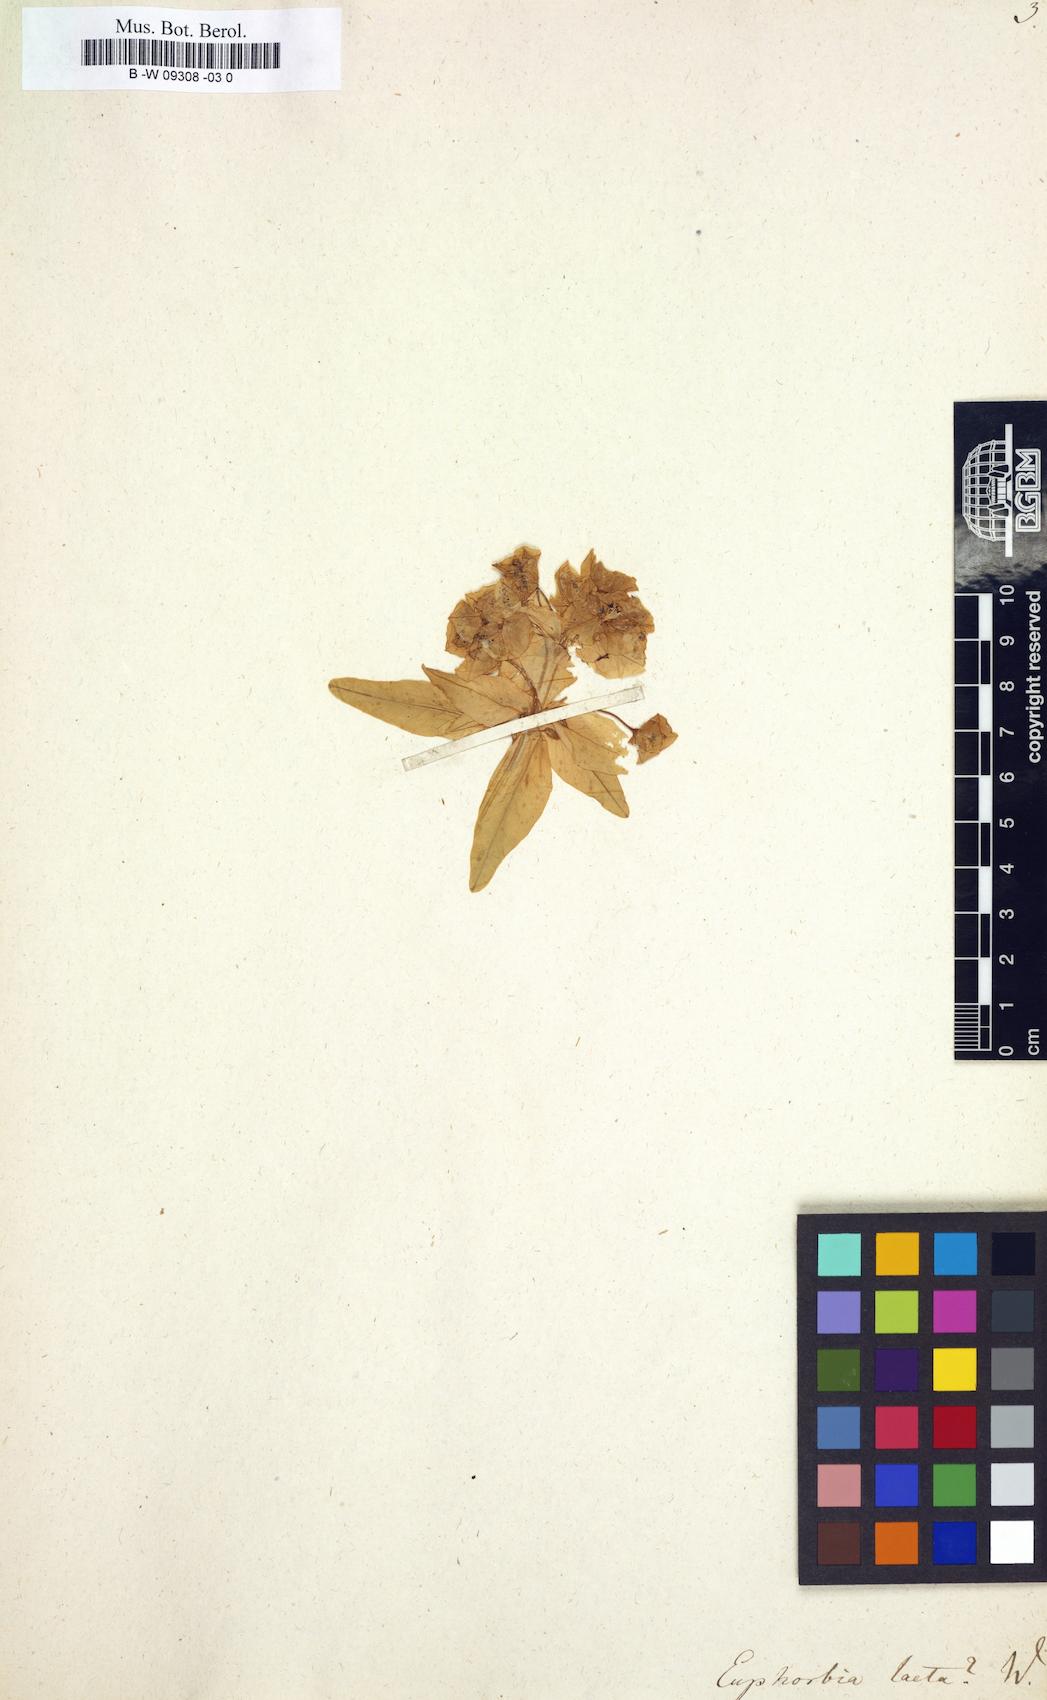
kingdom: Plantae
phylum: Tracheophyta
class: Magnoliopsida
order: Malpighiales
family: Euphorbiaceae
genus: Euphorbia
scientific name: Euphorbia dendroides
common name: Tree spurge
